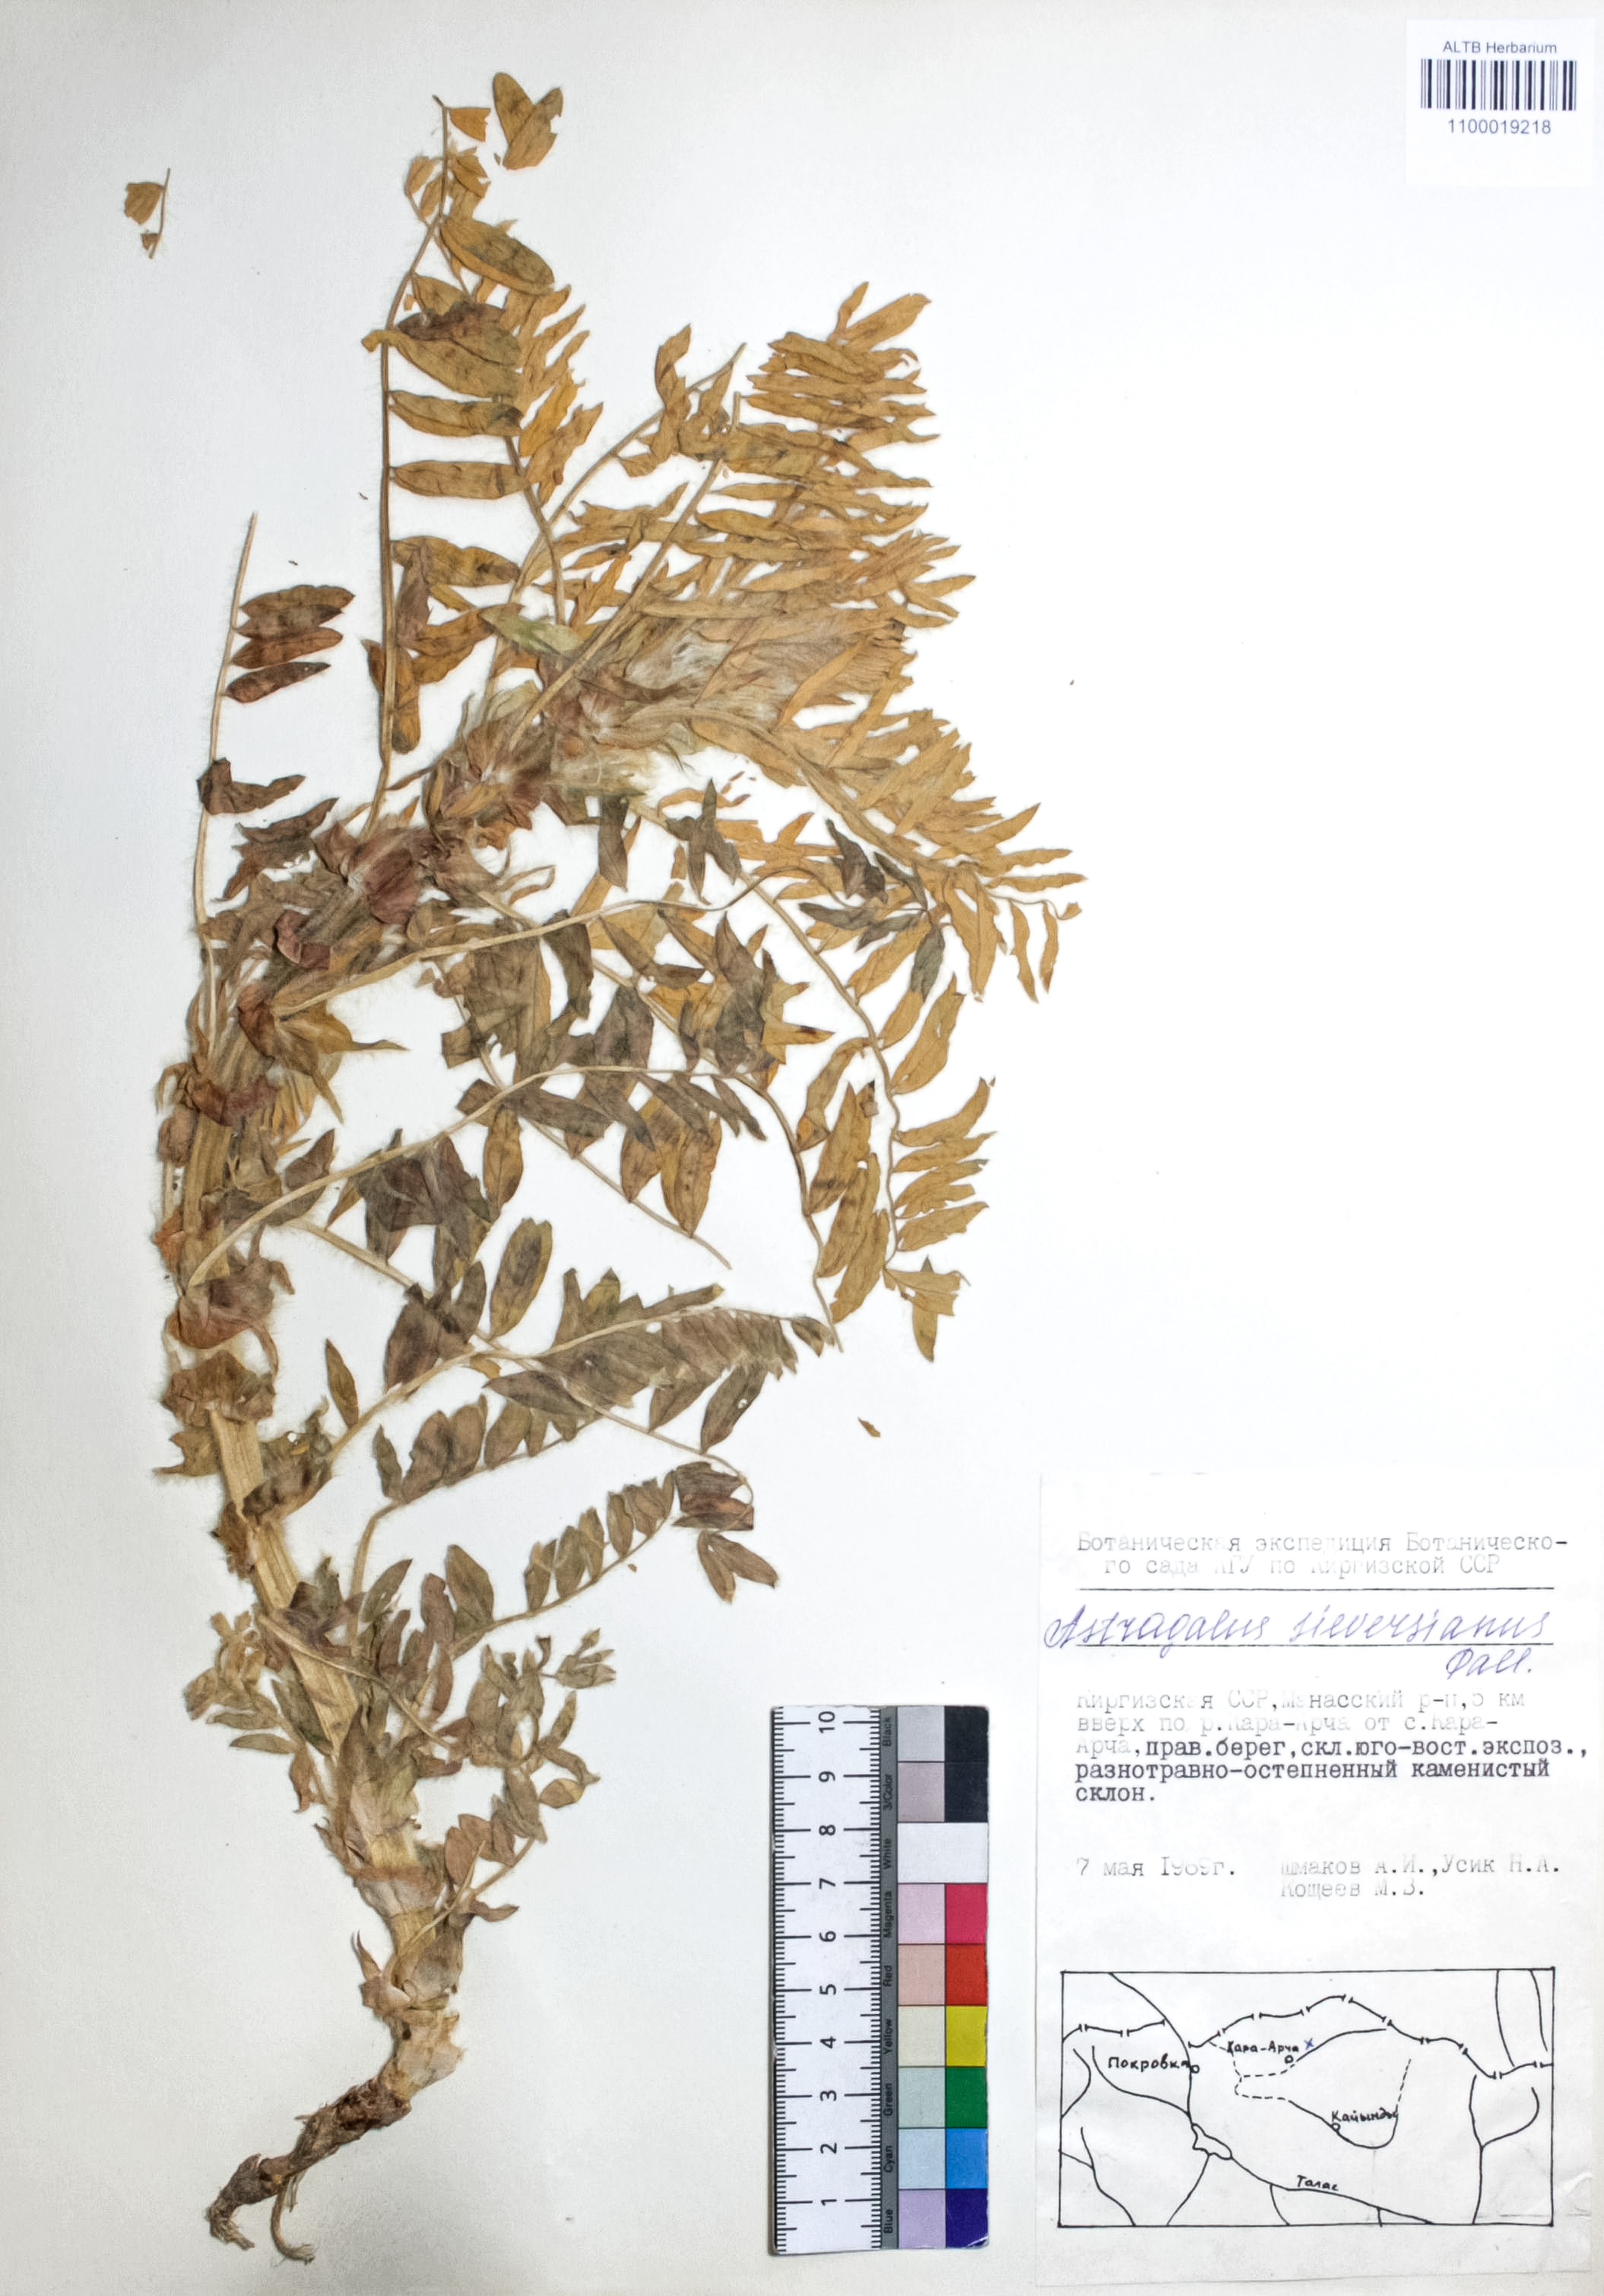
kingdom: Plantae
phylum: Tracheophyta
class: Magnoliopsida
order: Fabales
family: Fabaceae
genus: Astragalus
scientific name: Astragalus sieversianus
